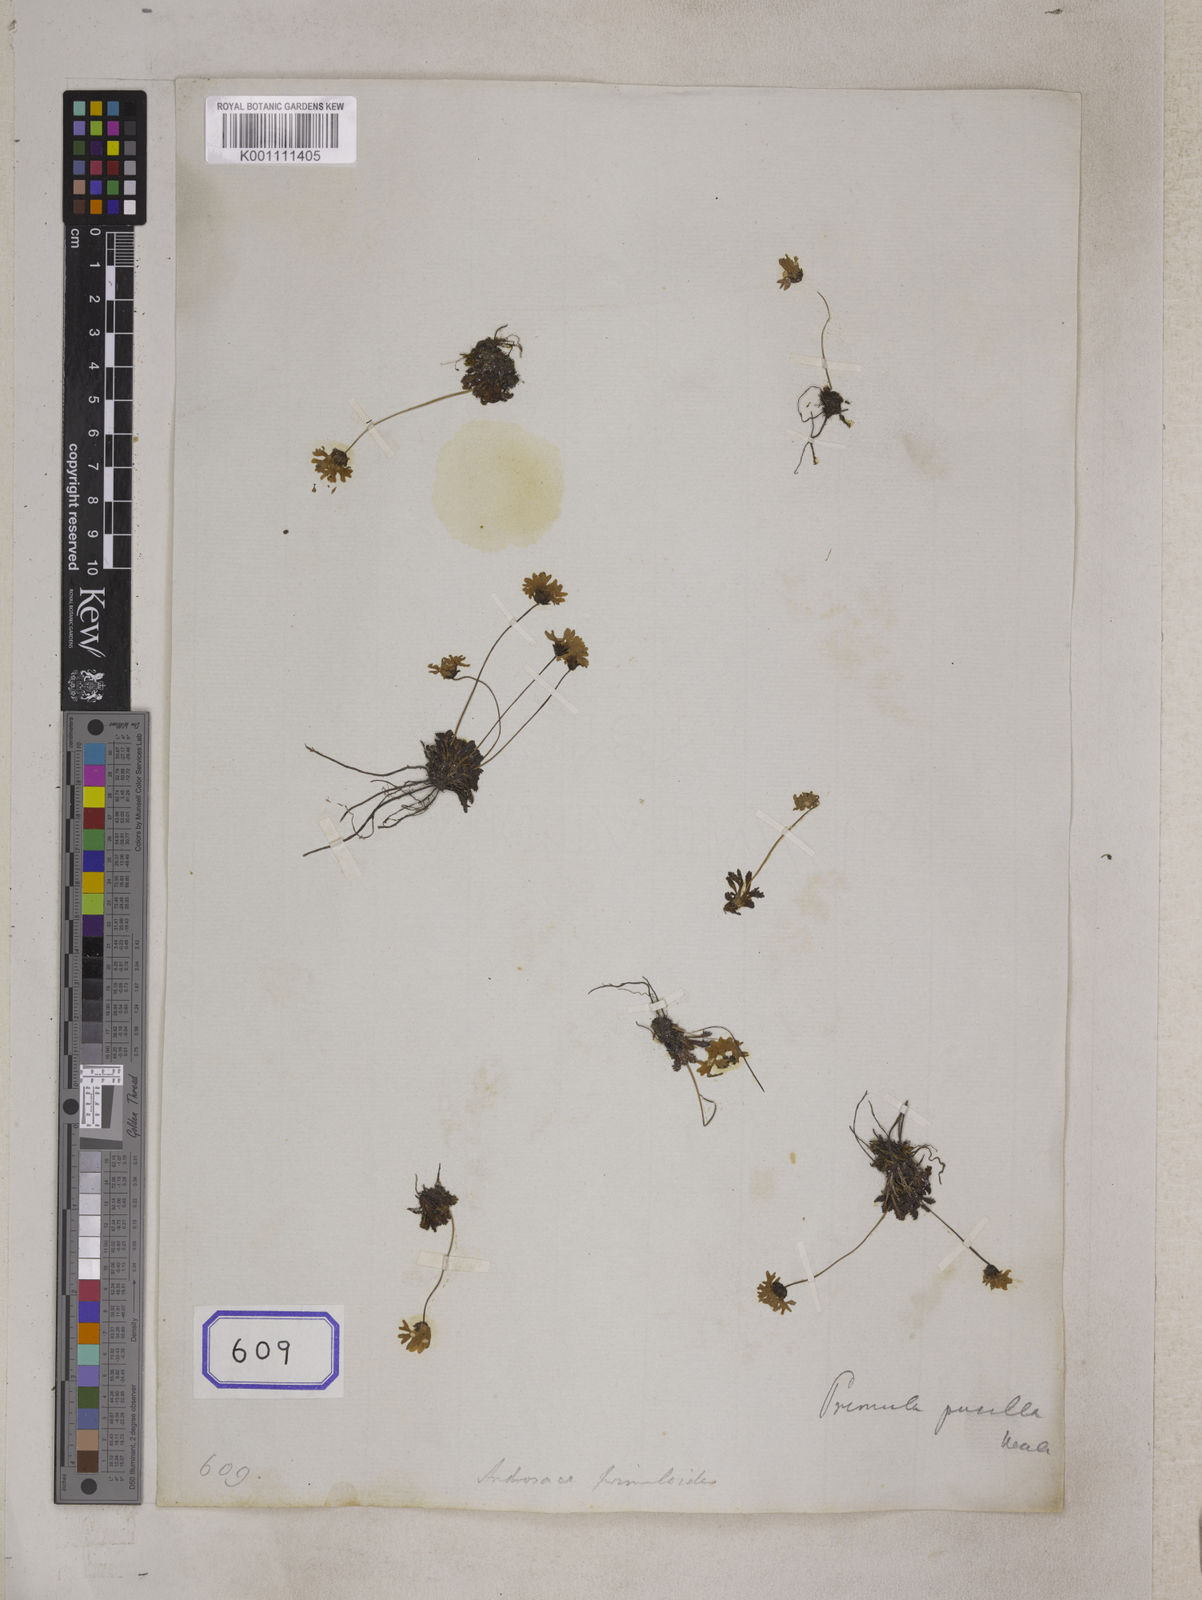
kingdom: Plantae
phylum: Tracheophyta
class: Magnoliopsida
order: Ericales
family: Primulaceae
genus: Primula
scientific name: Primula primulina
